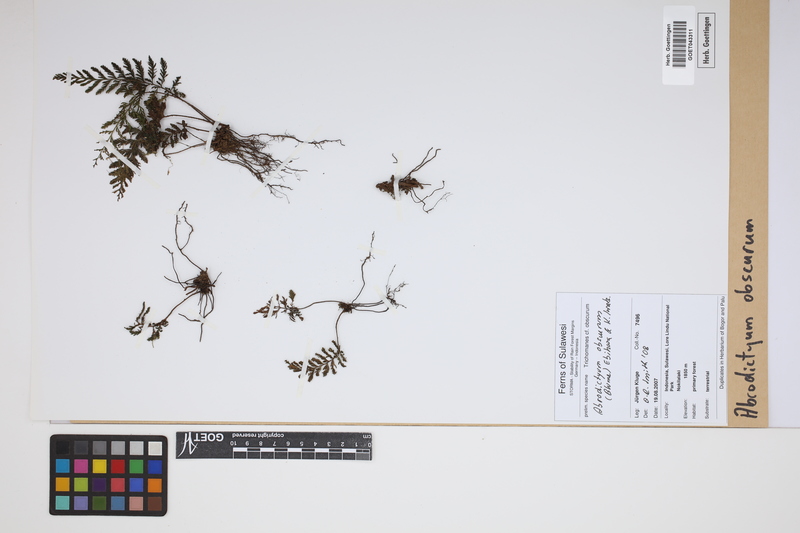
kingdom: Plantae
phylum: Tracheophyta
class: Polypodiopsida
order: Hymenophyllales
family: Hymenophyllaceae
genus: Abrodictyum
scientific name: Abrodictyum obscurum
